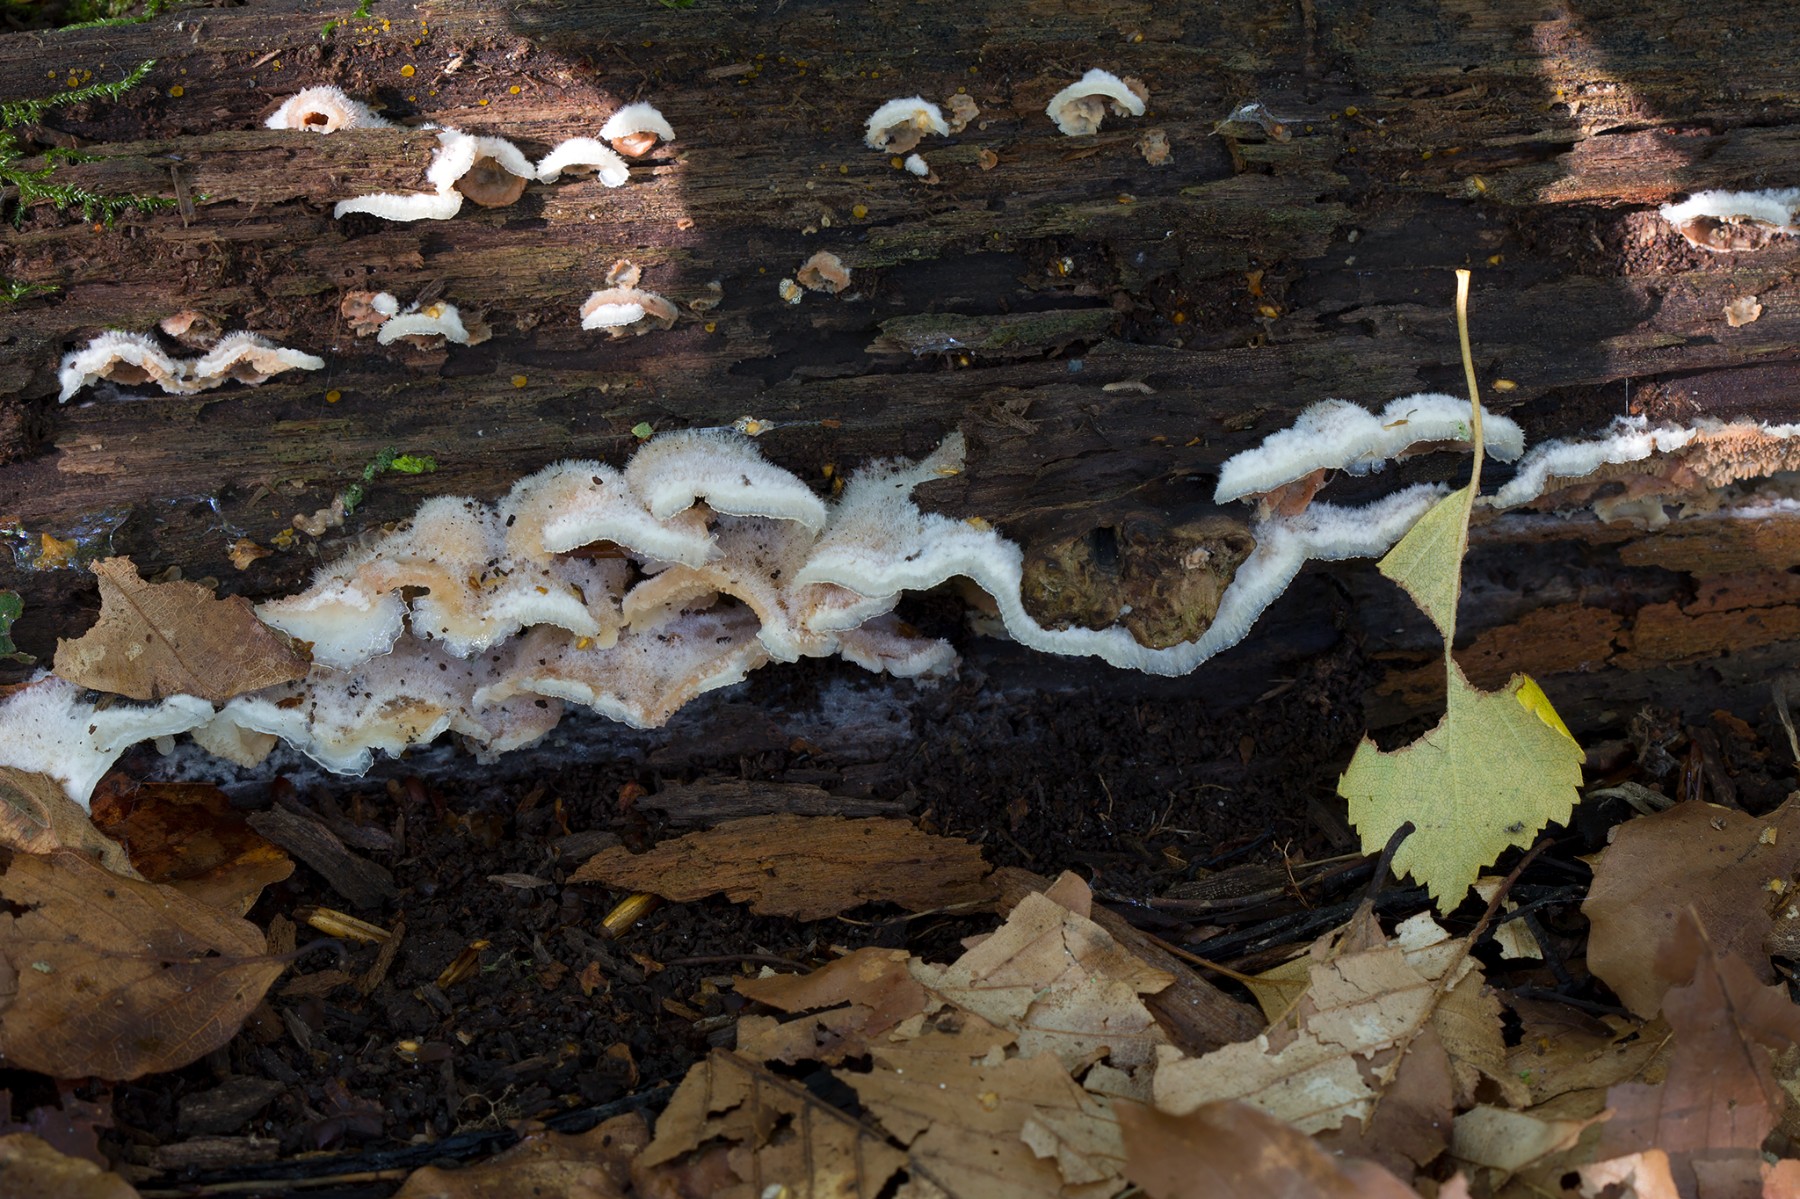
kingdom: Fungi
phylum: Basidiomycota
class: Agaricomycetes
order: Polyporales
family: Meruliaceae
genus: Phlebia
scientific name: Phlebia tremellosa
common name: bævrende åresvamp
